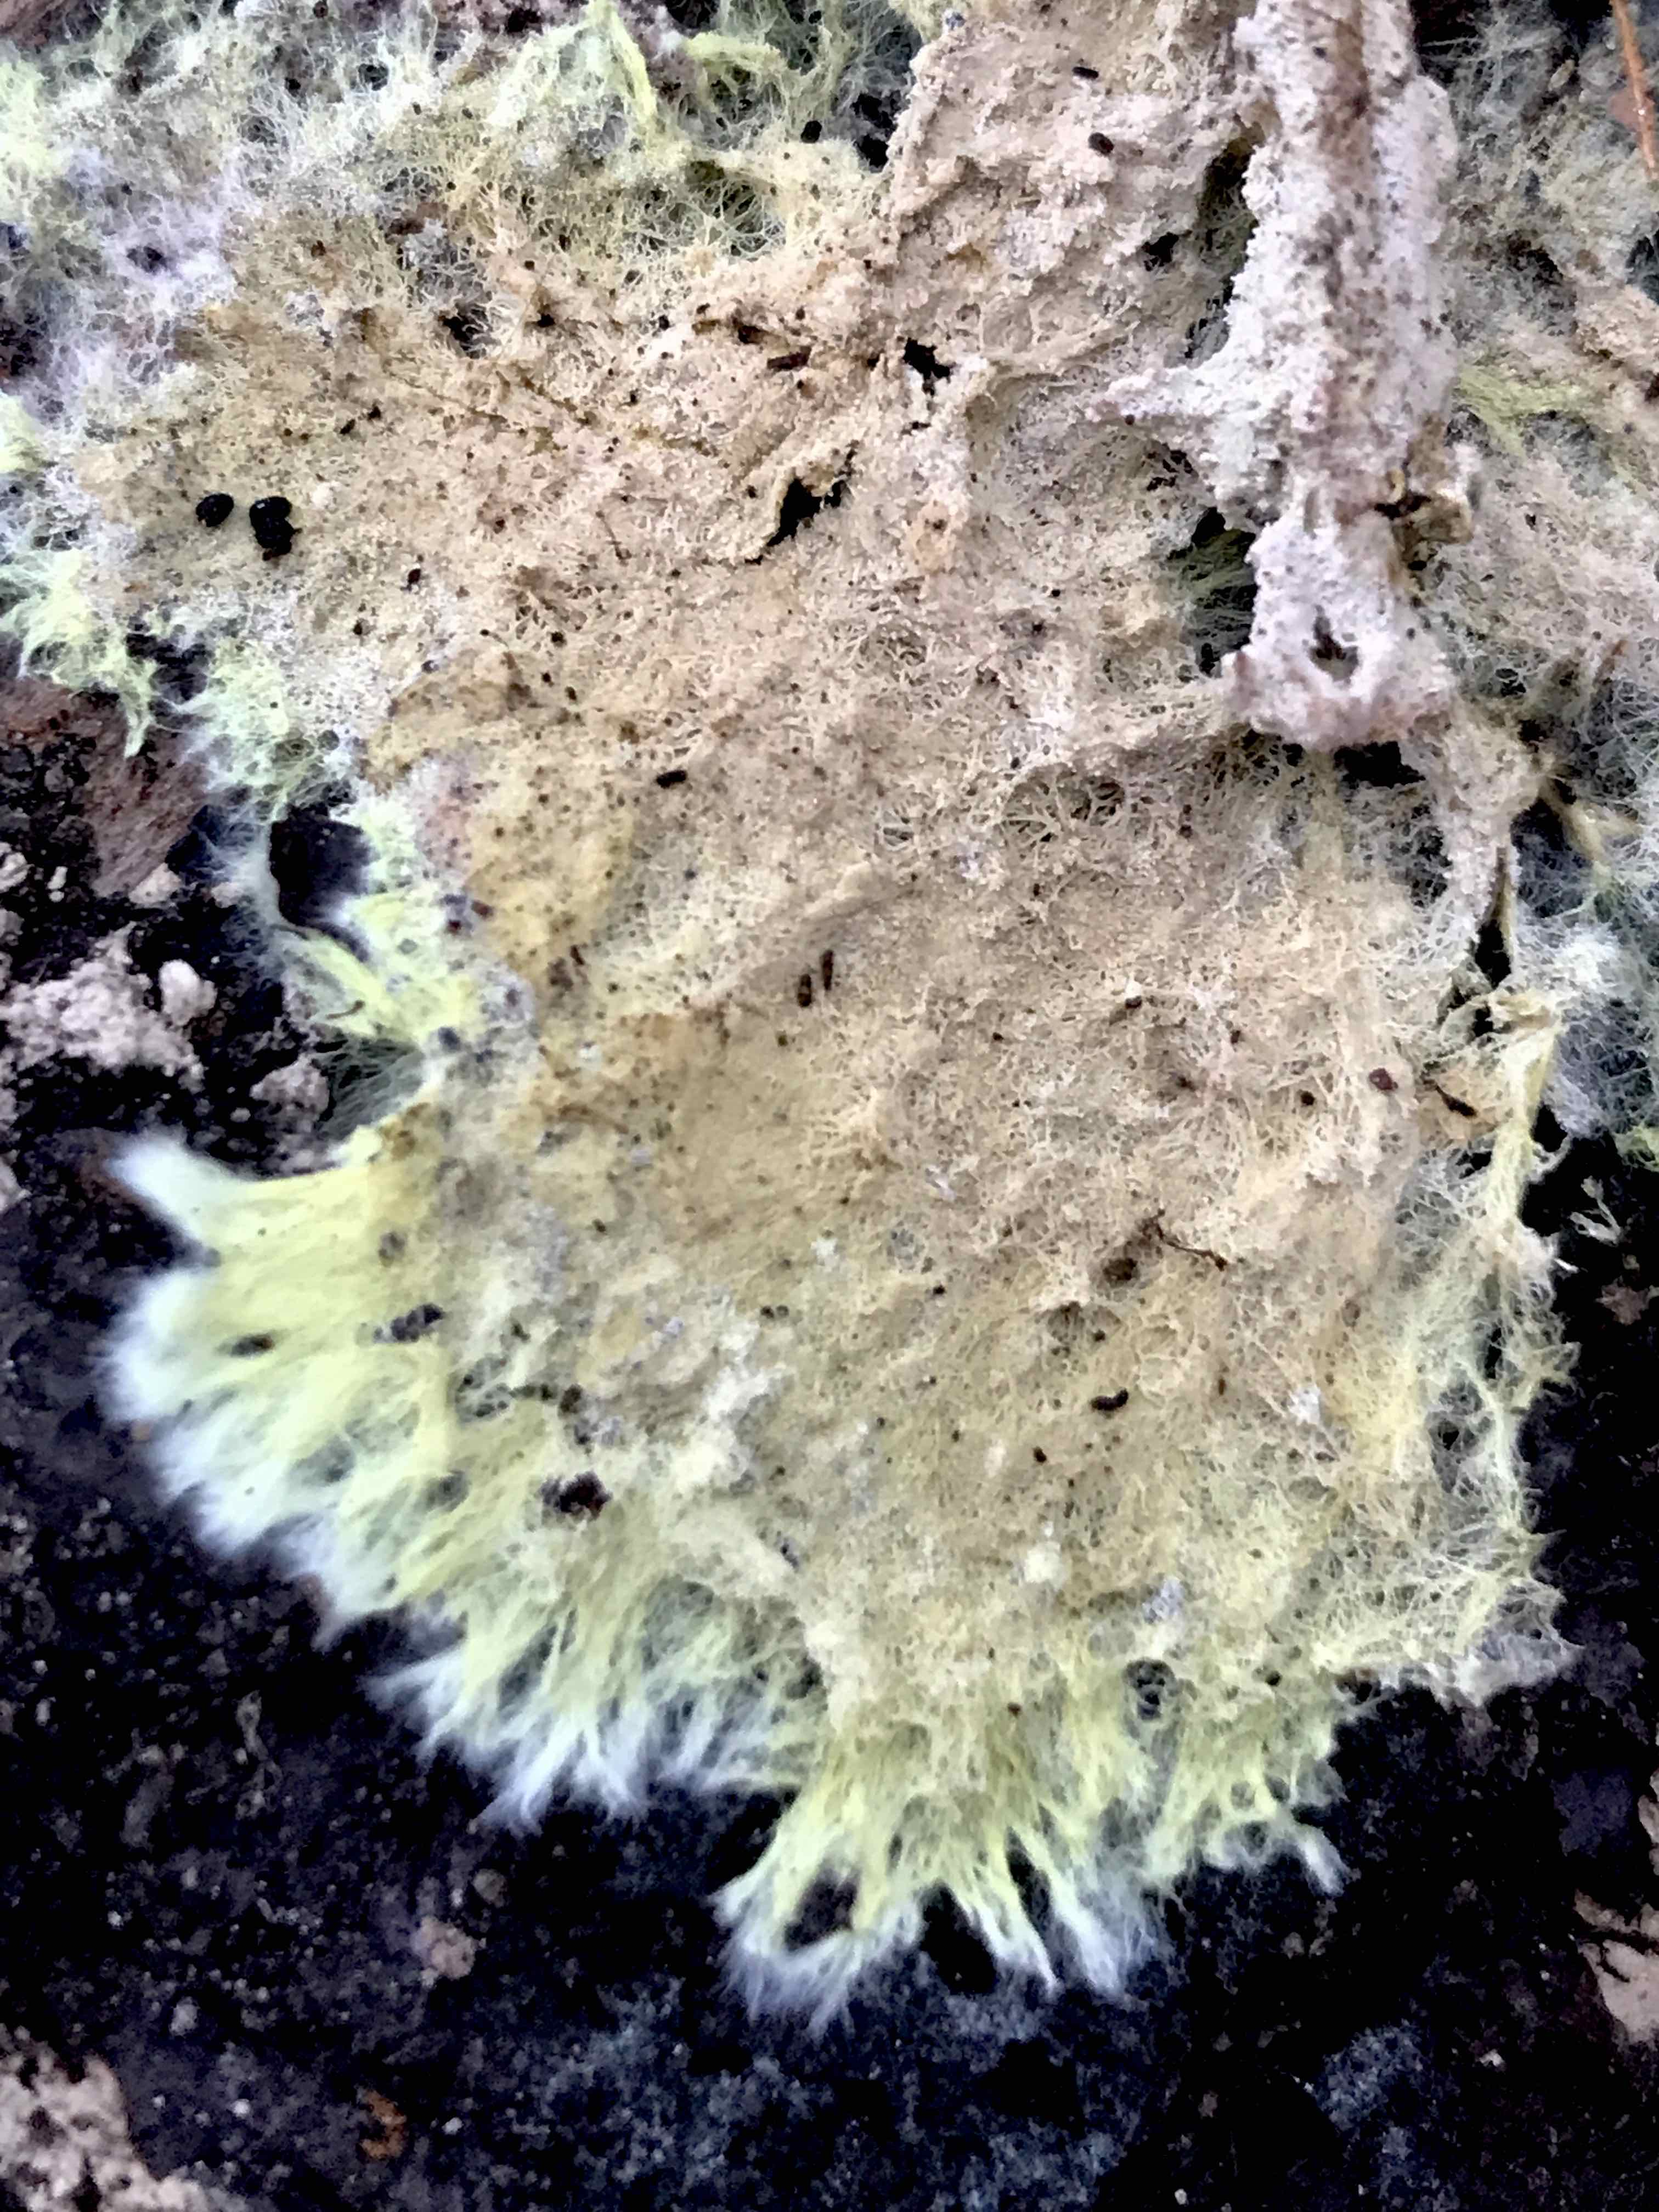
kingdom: Fungi
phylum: Basidiomycota
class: Agaricomycetes
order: Russulales
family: Xenasmataceae
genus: Xenasmatella
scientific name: Xenasmatella vaga
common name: svovl-strenghinde
